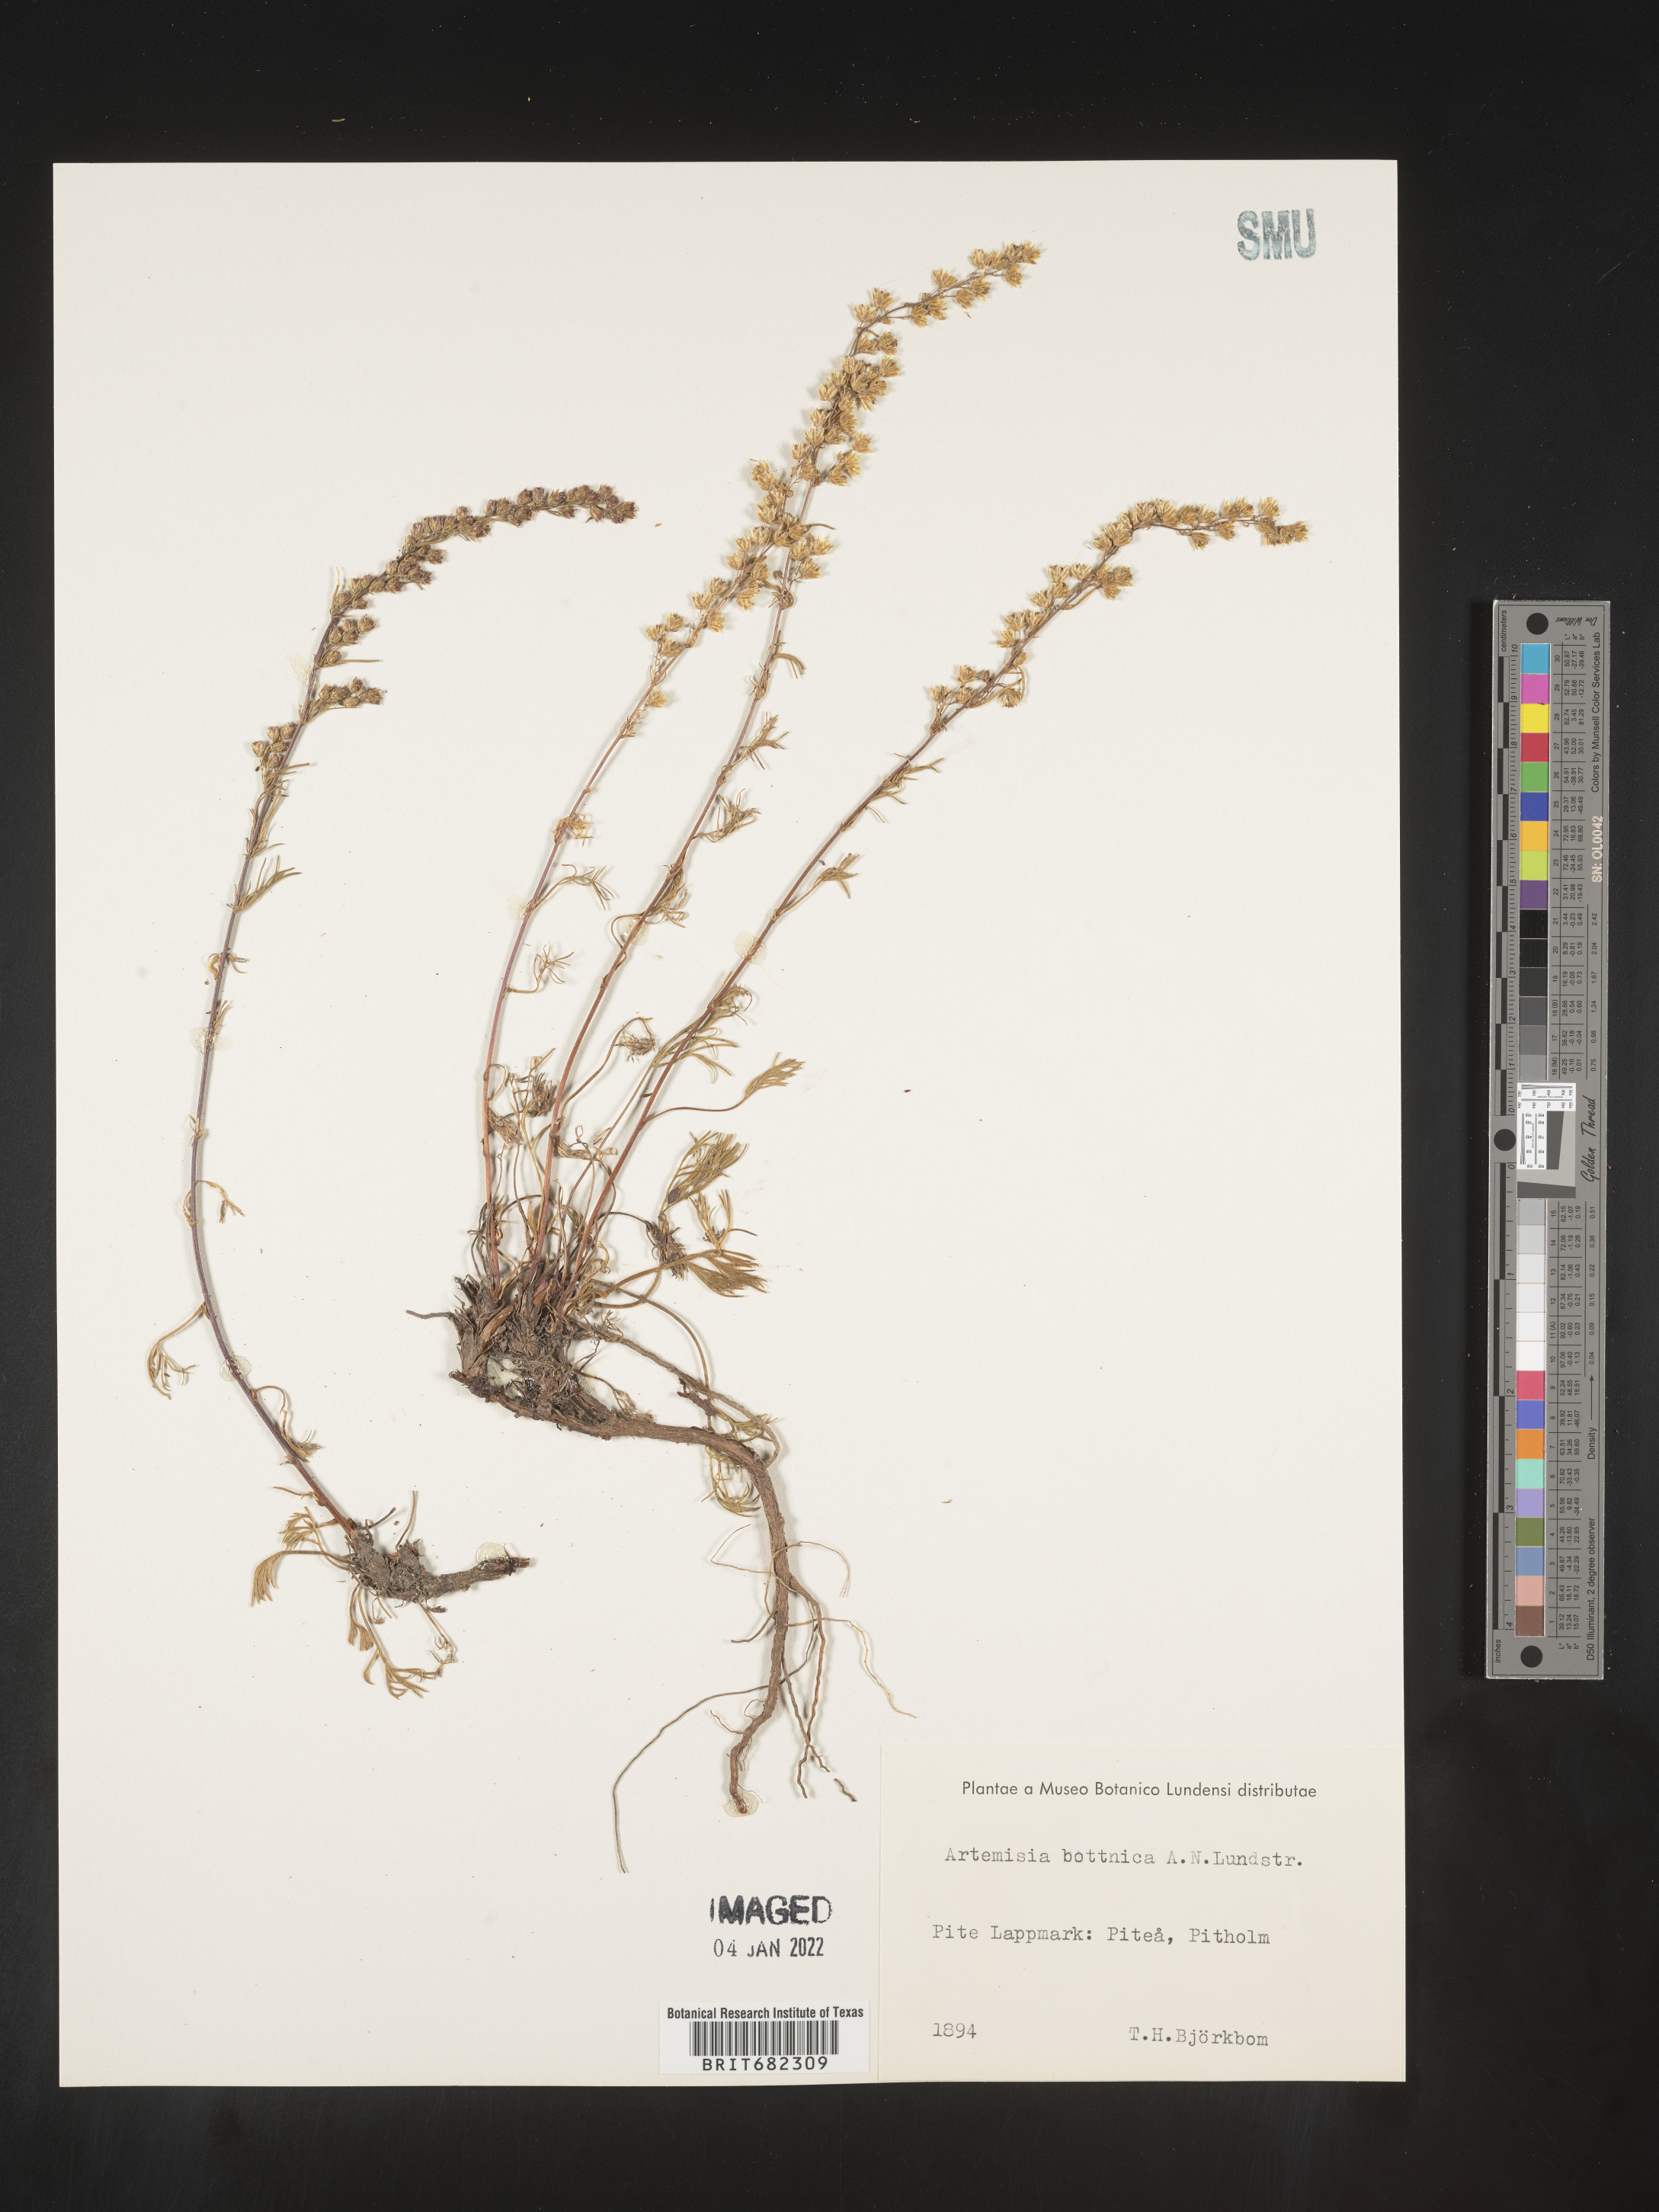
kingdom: Plantae
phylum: Tracheophyta
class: Magnoliopsida
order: Asterales
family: Asteraceae
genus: Artemisia
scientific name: Artemisia
